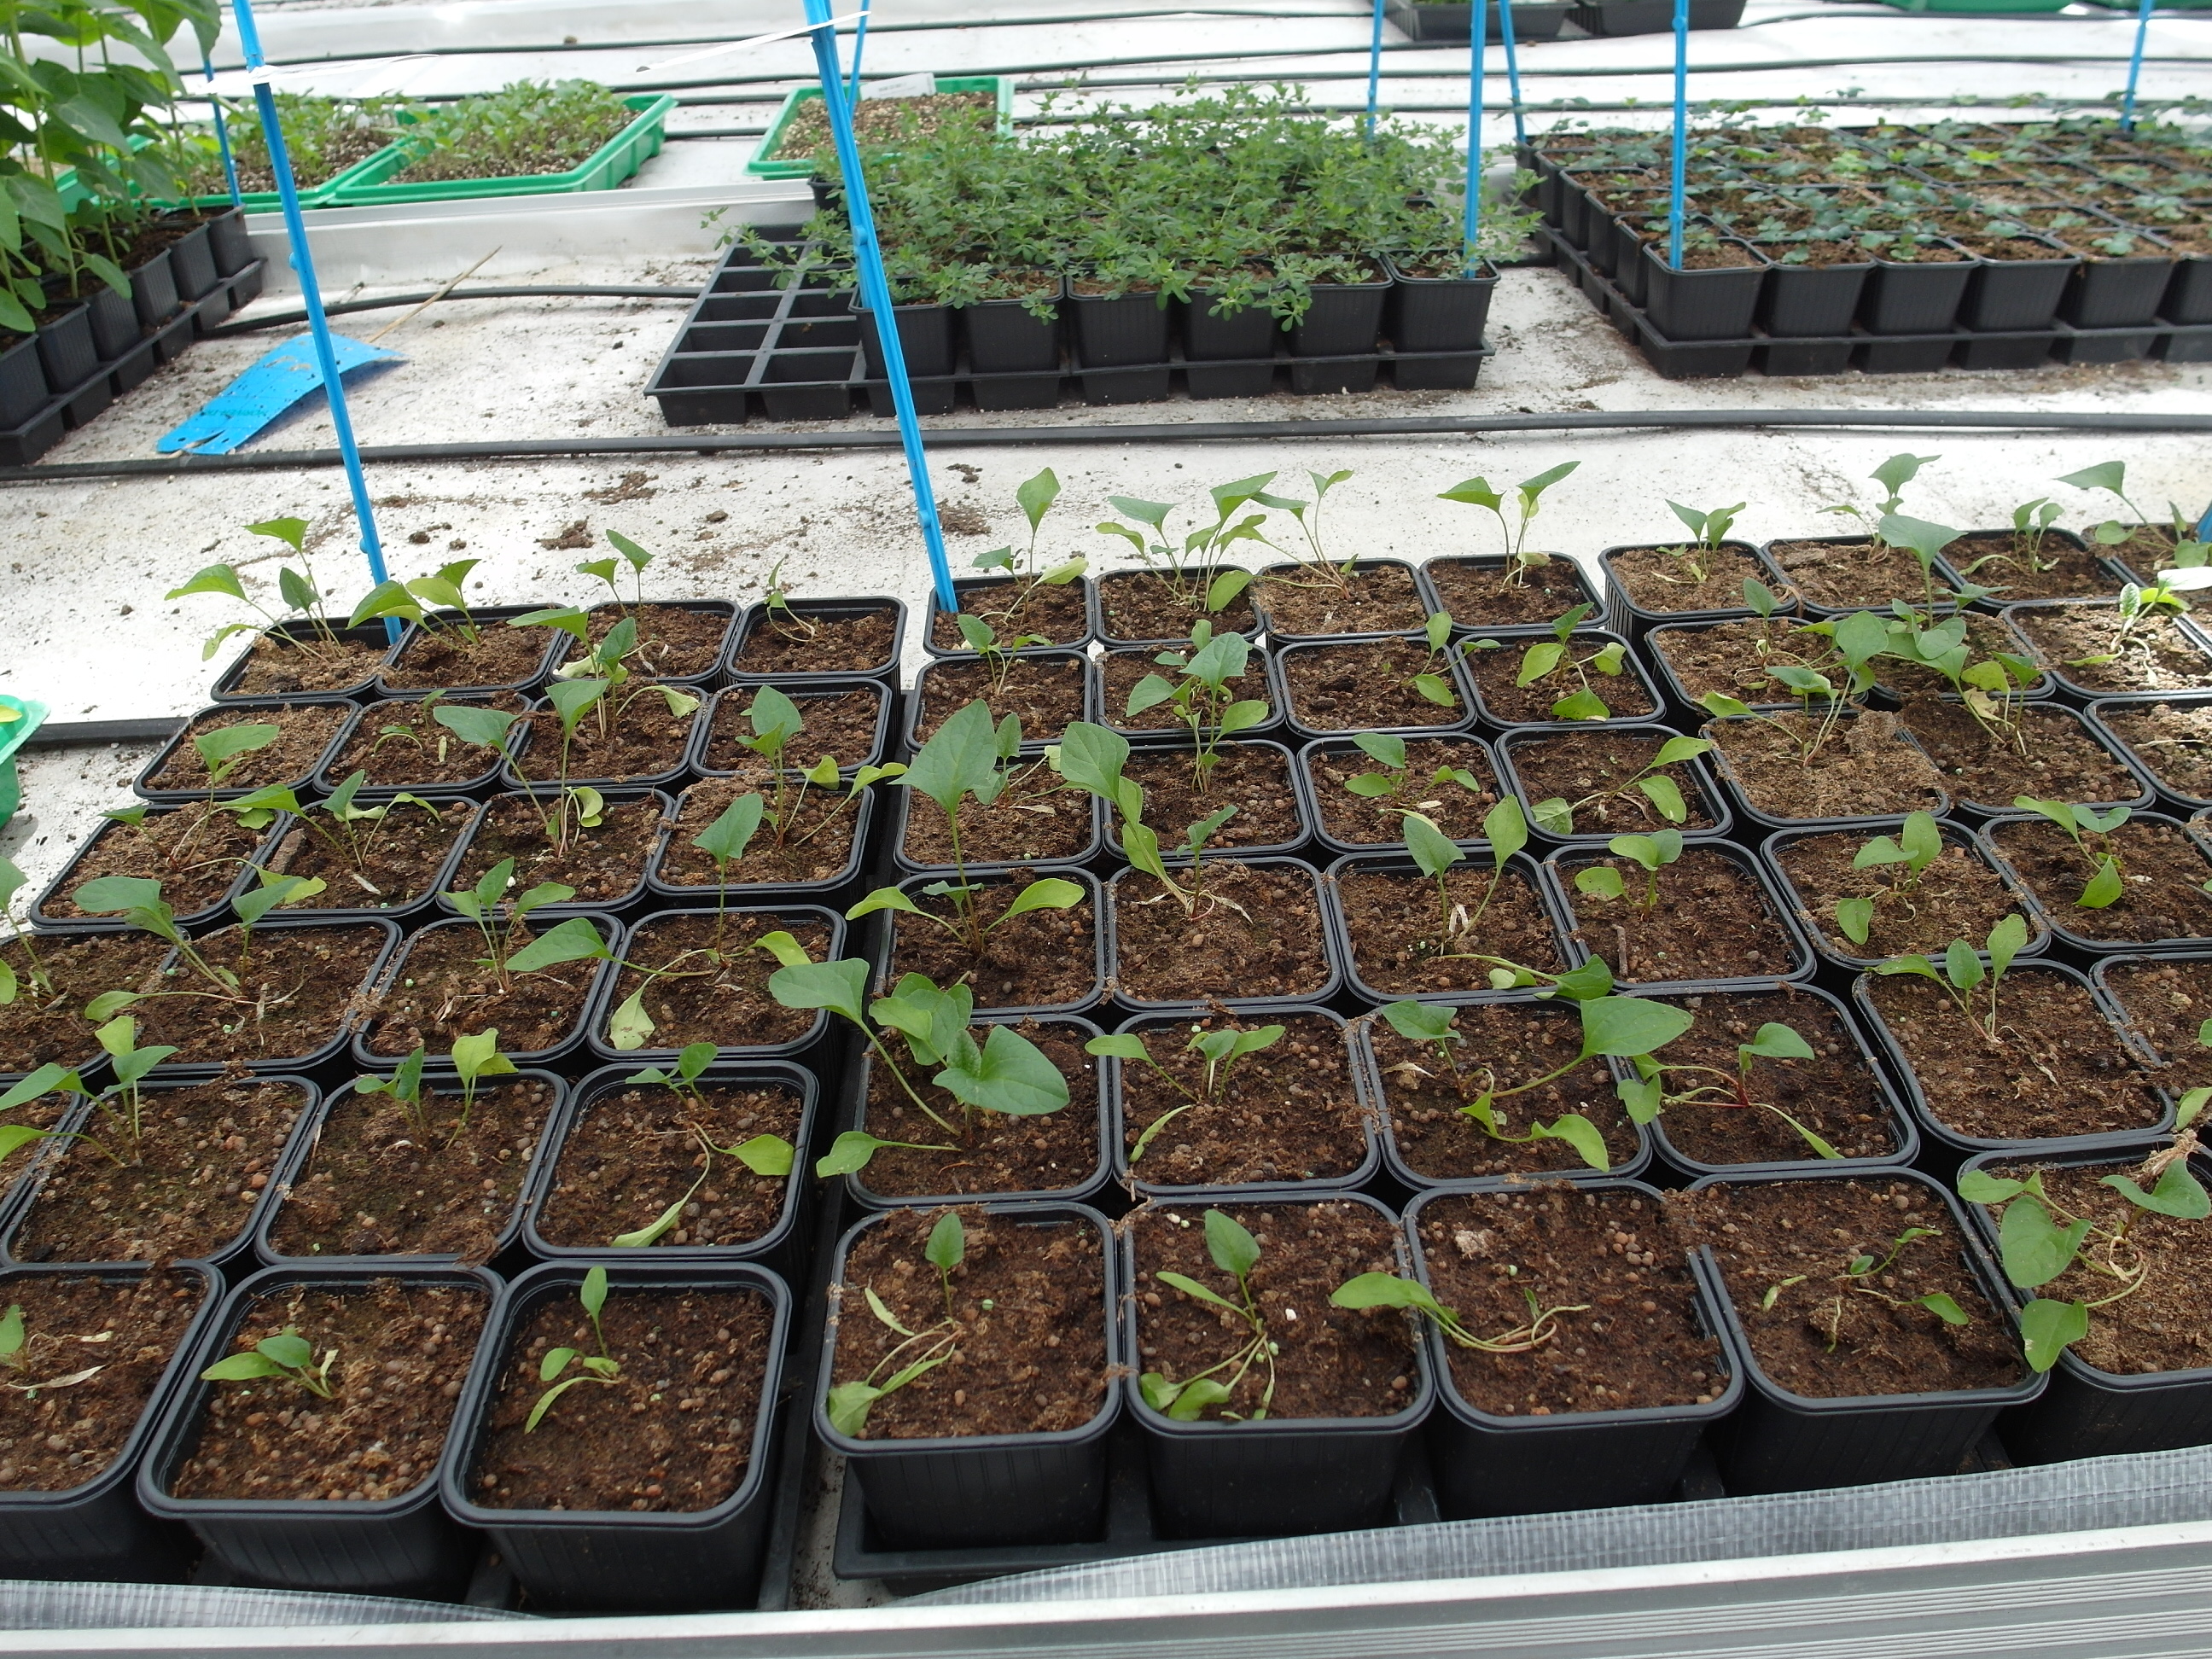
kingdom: Plantae
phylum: Tracheophyta
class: Magnoliopsida
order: Caryophyllales
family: Amaranthaceae
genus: Blitum
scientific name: Blitum bonus-henricus
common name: Good king henry
